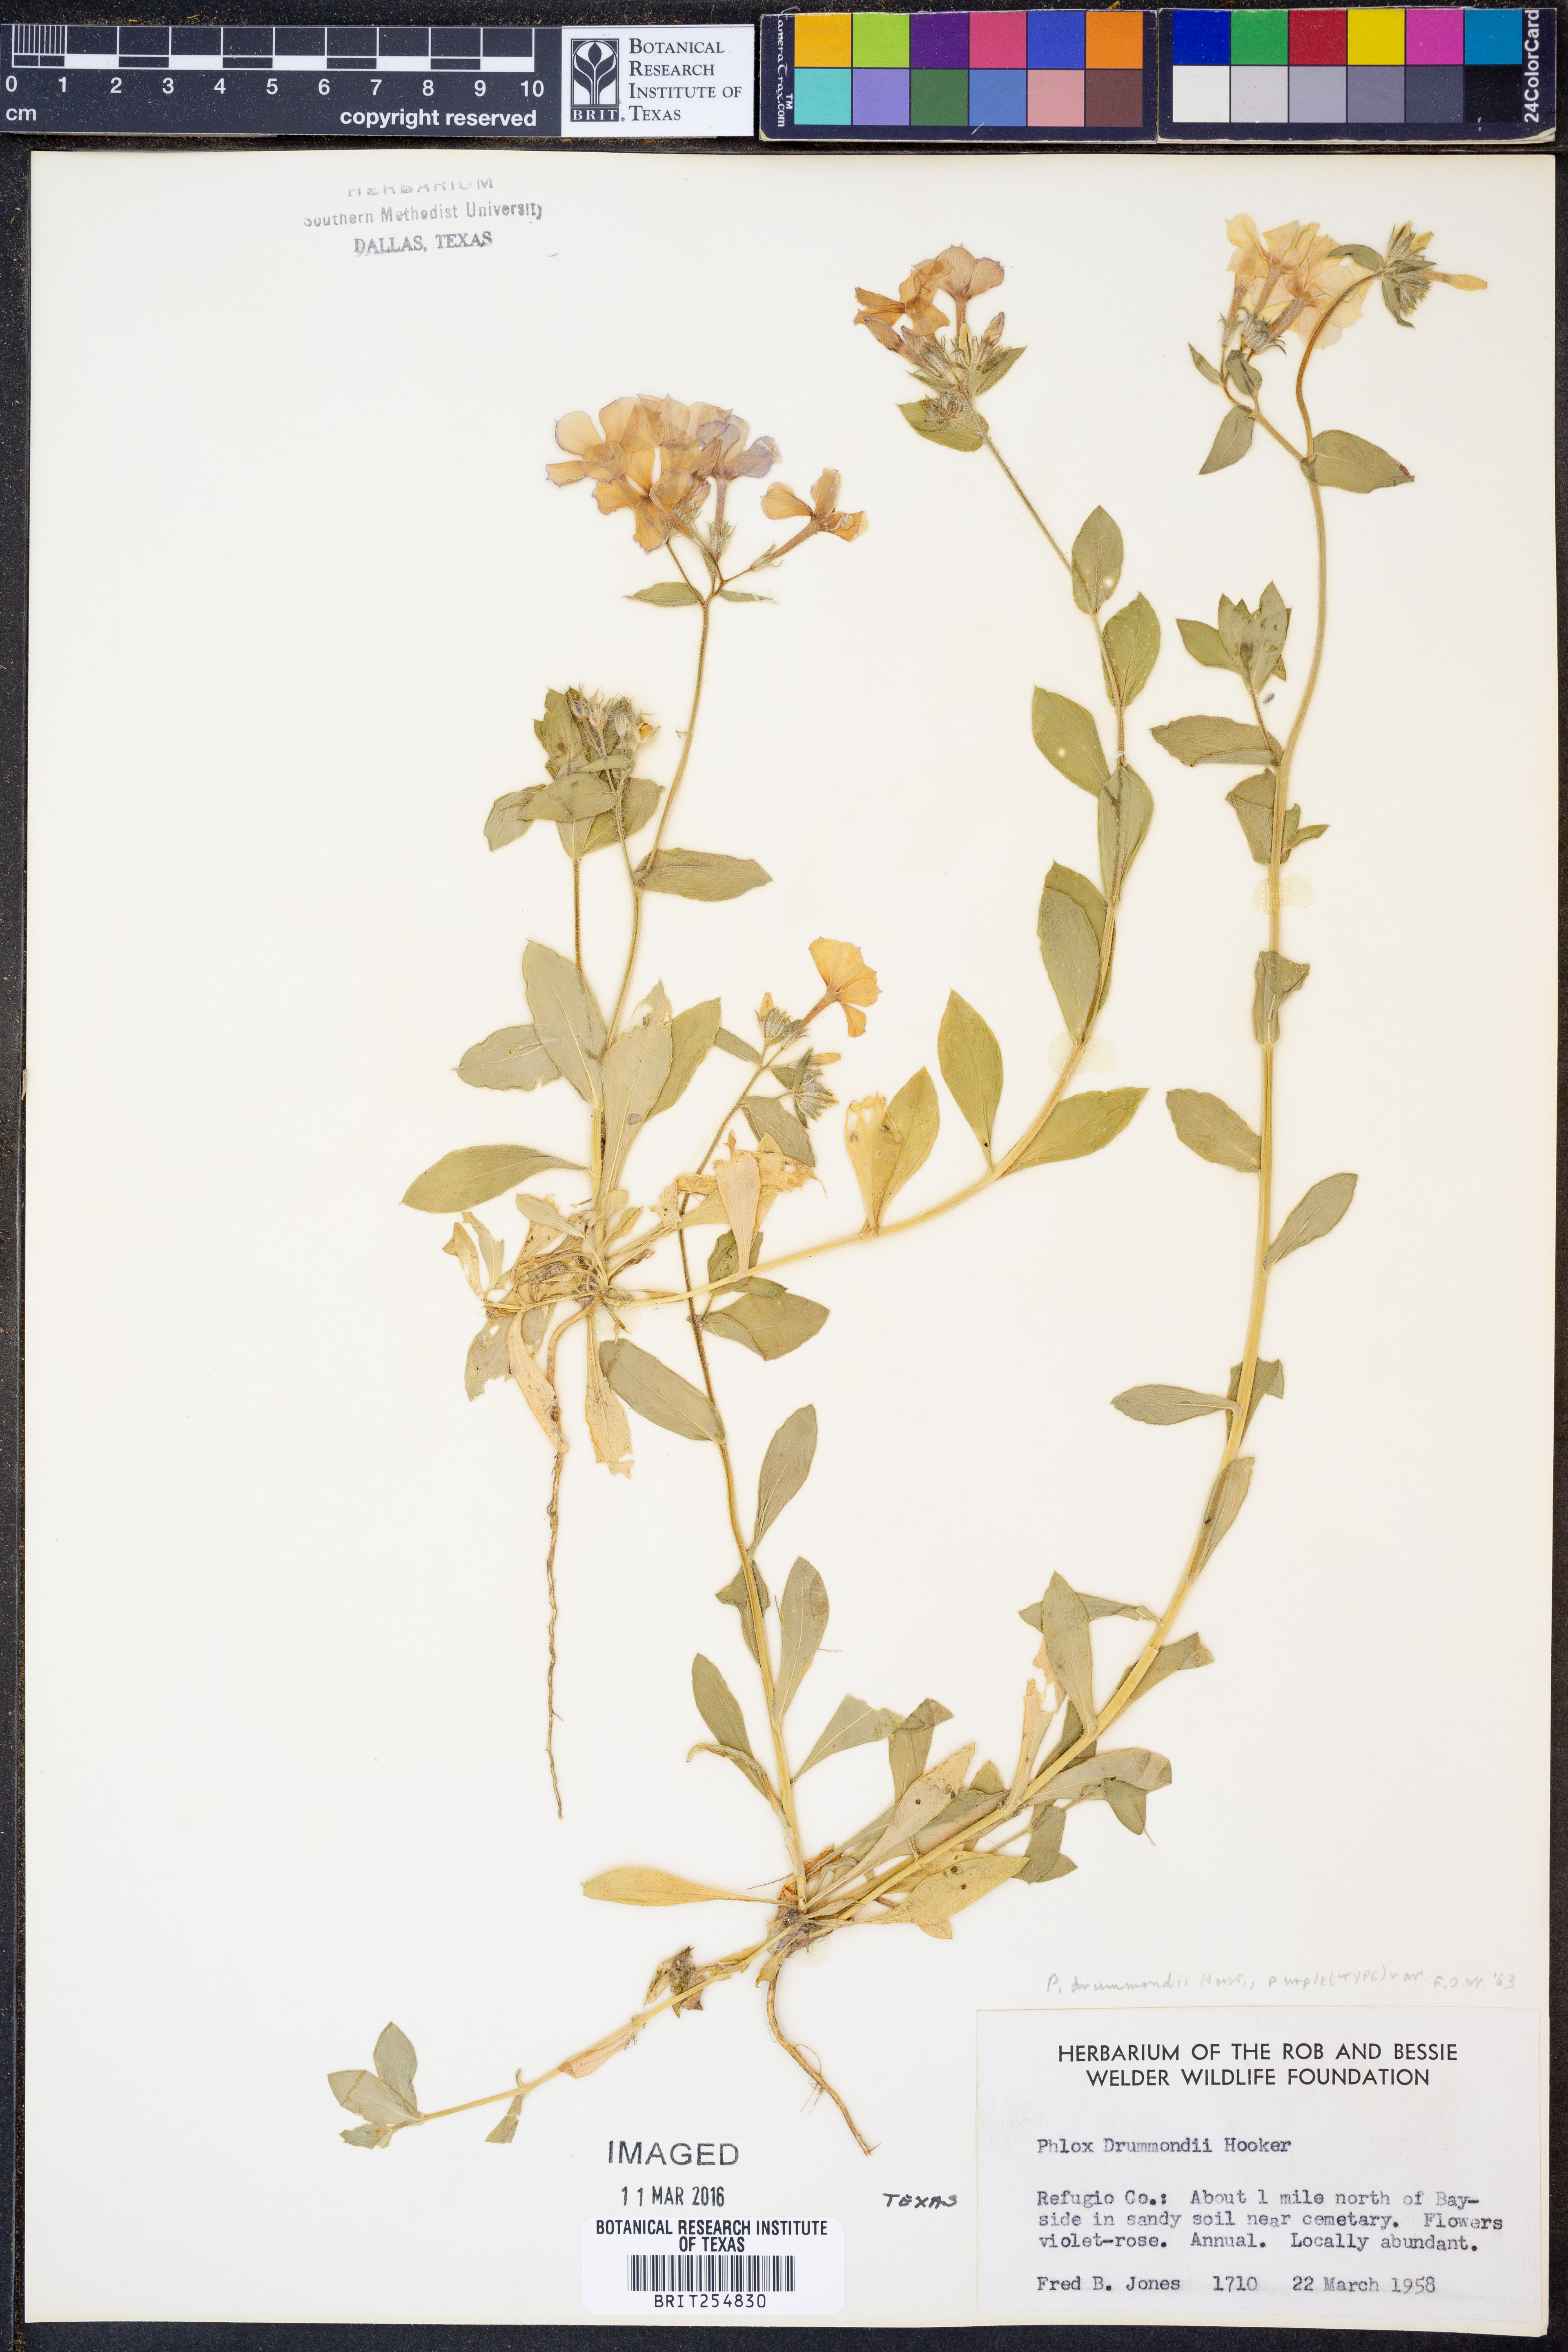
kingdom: Plantae
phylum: Tracheophyta
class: Magnoliopsida
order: Ericales
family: Polemoniaceae
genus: Phlox
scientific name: Phlox drummondii
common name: Drummond's phlox
